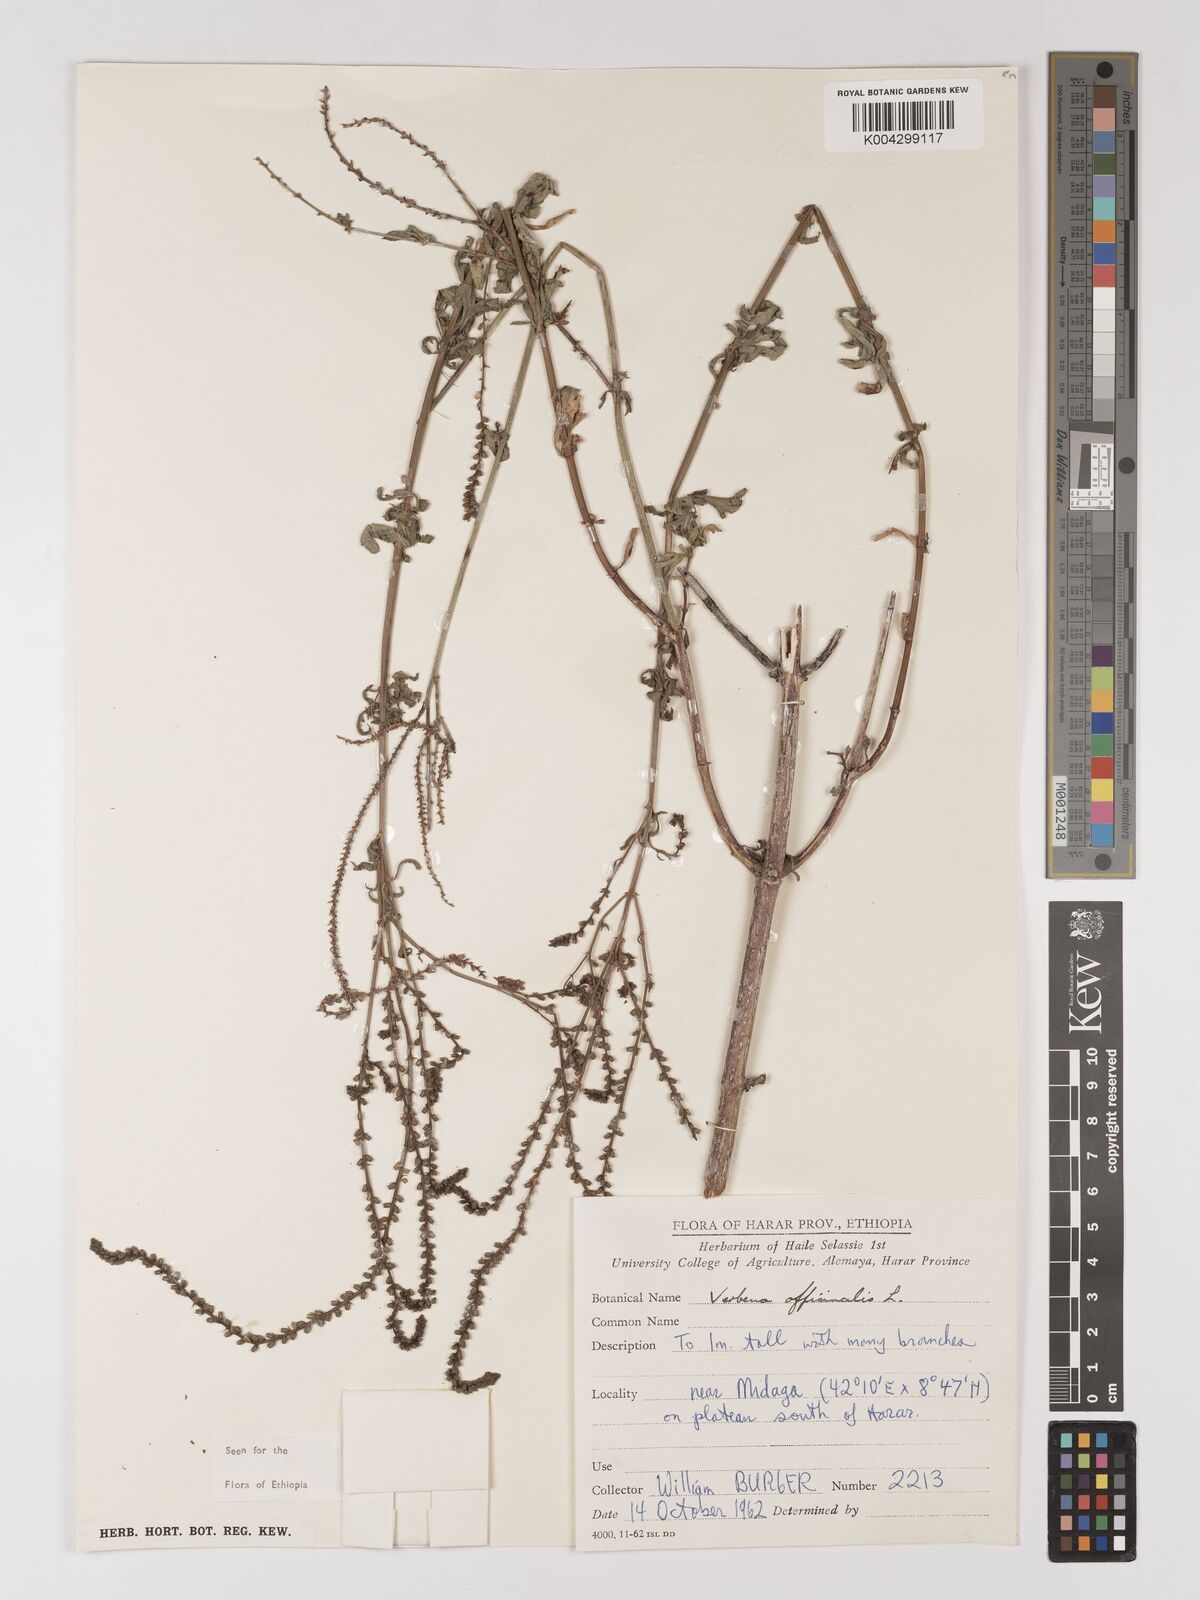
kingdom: Plantae
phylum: Tracheophyta
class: Magnoliopsida
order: Lamiales
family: Verbenaceae
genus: Verbena
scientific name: Verbena officinalis
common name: Vervain
